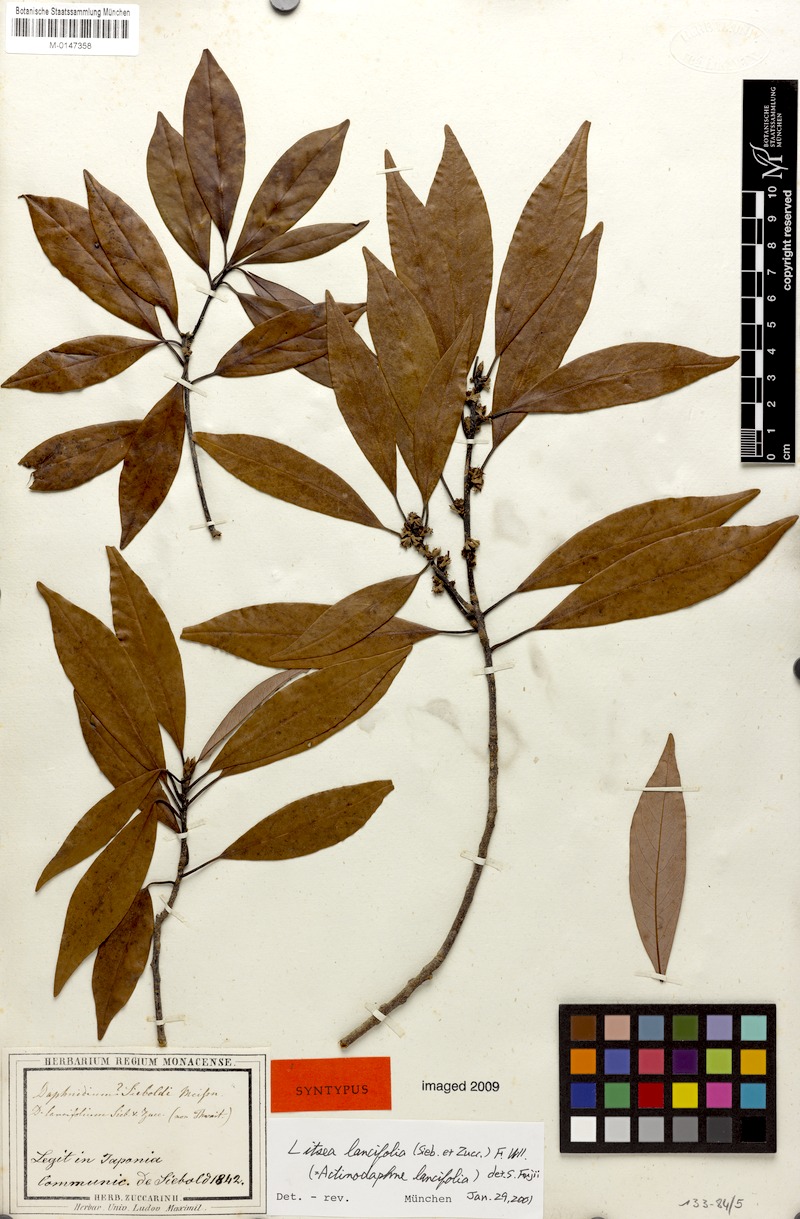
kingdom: Plantae
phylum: Tracheophyta
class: Magnoliopsida
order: Laurales
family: Lauraceae
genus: Litsea
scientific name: Litsea lancifolia
